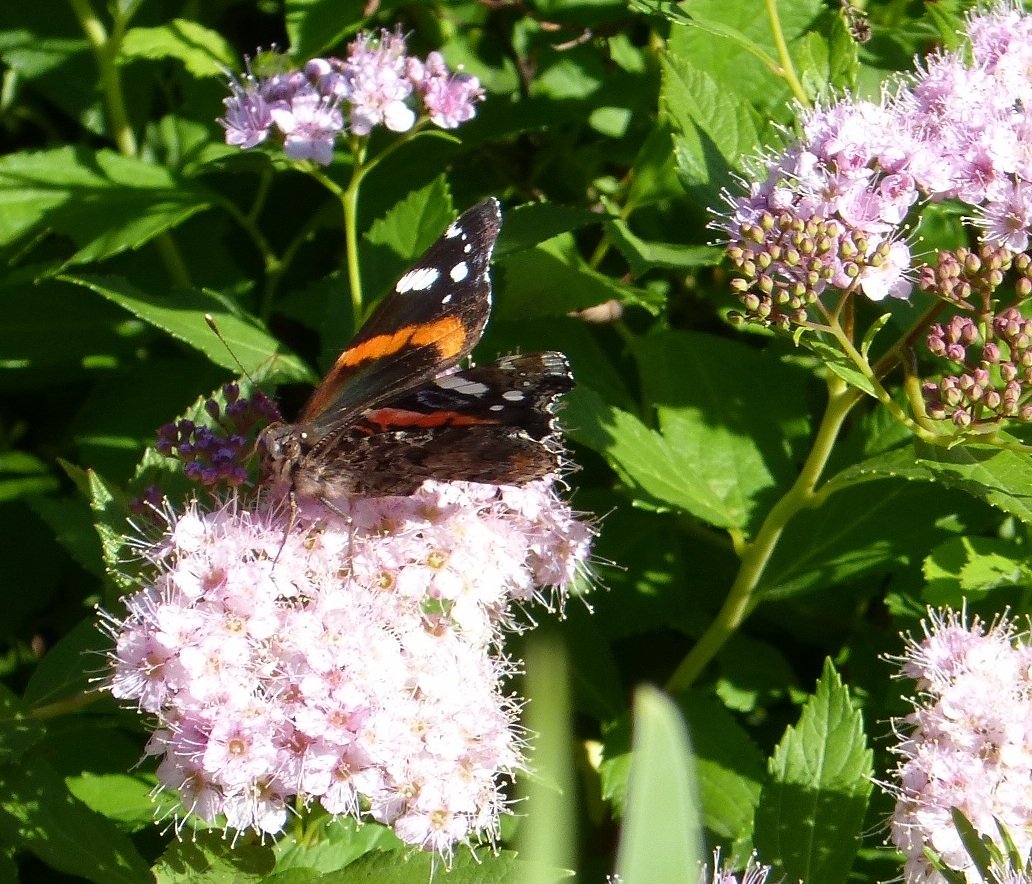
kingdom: Animalia
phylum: Arthropoda
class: Insecta
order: Lepidoptera
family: Nymphalidae
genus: Vanessa
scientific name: Vanessa atalanta
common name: Red Admiral
